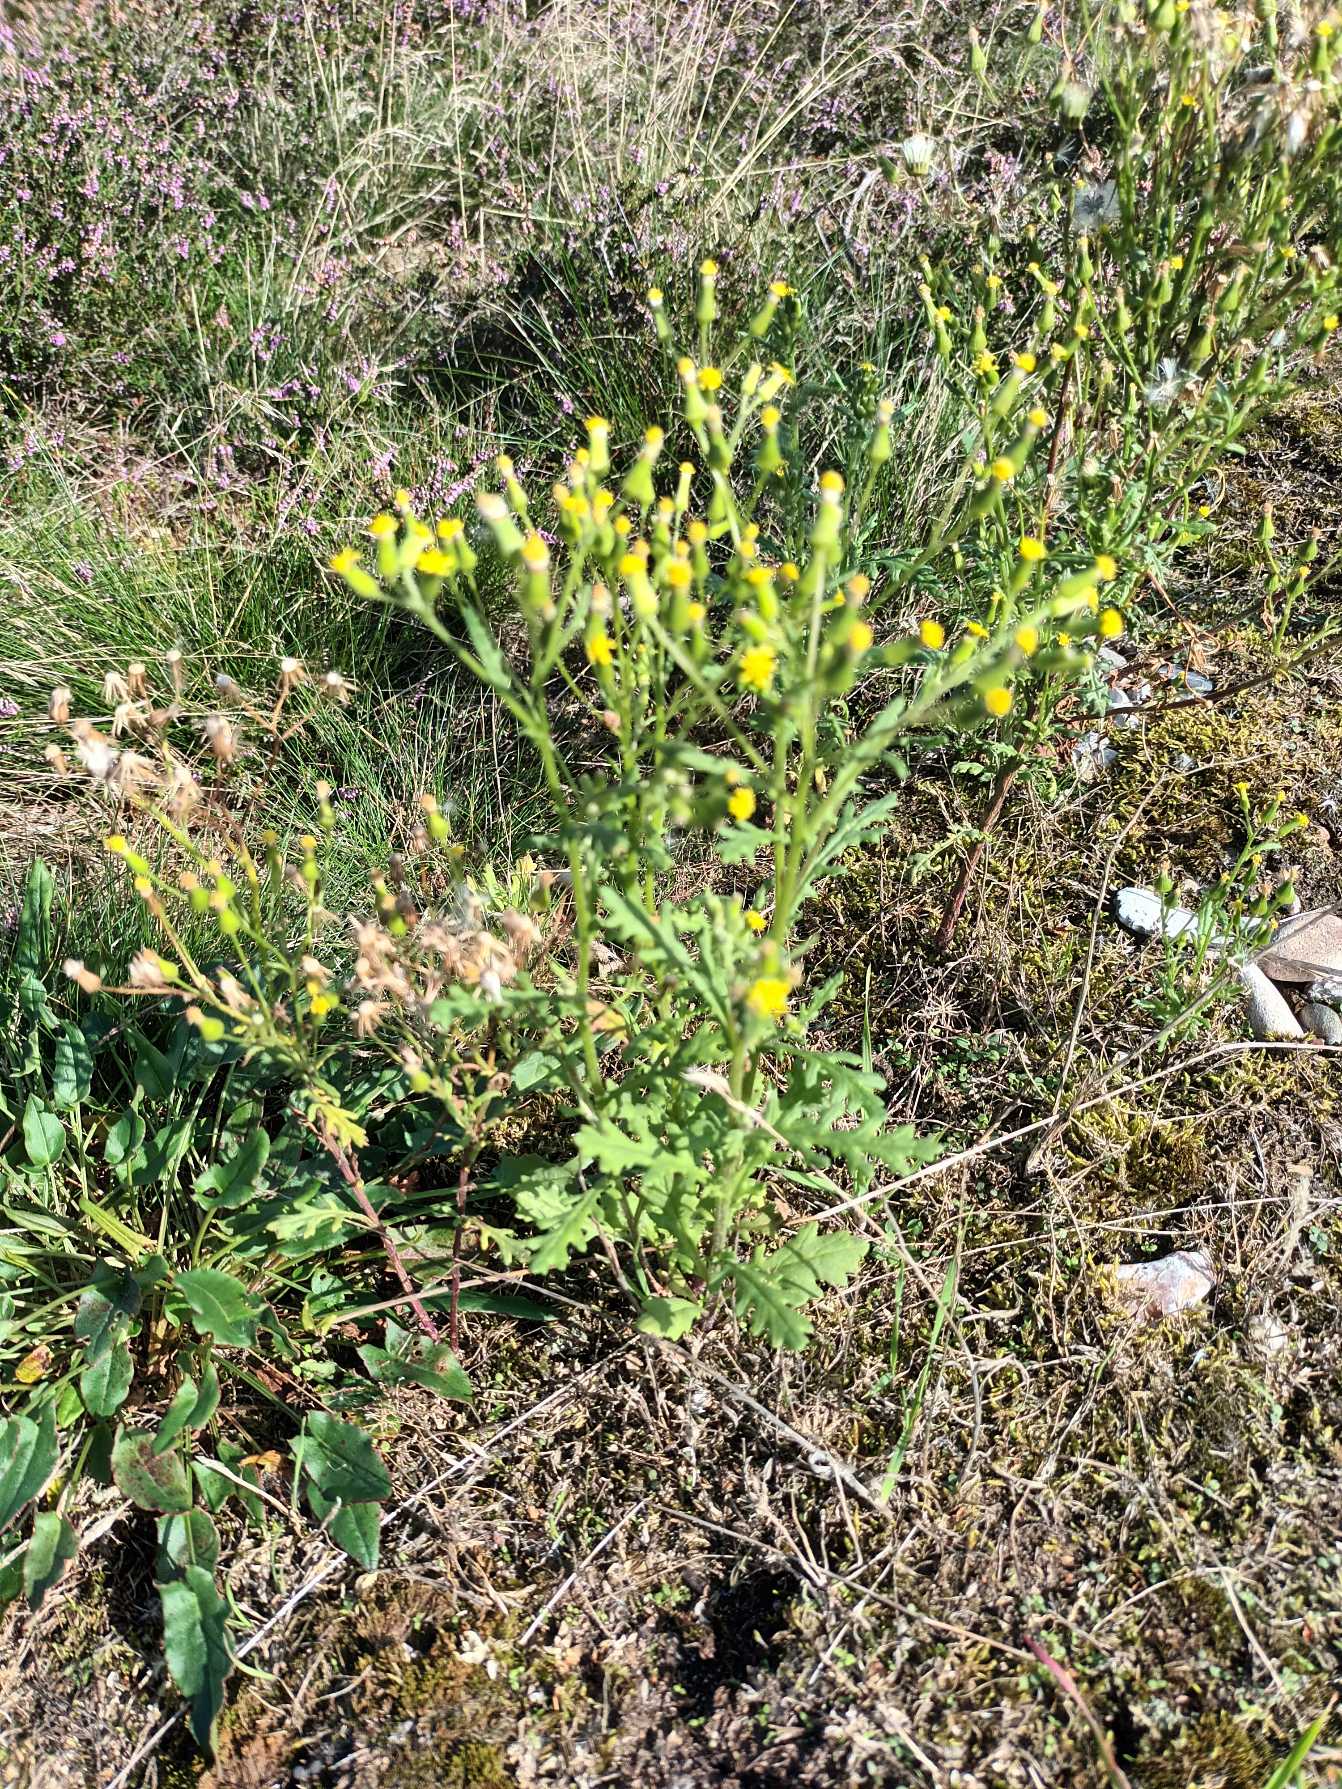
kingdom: Plantae
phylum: Tracheophyta
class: Magnoliopsida
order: Asterales
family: Asteraceae
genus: Senecio
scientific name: Senecio sylvaticus
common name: Skov-brandbæger
